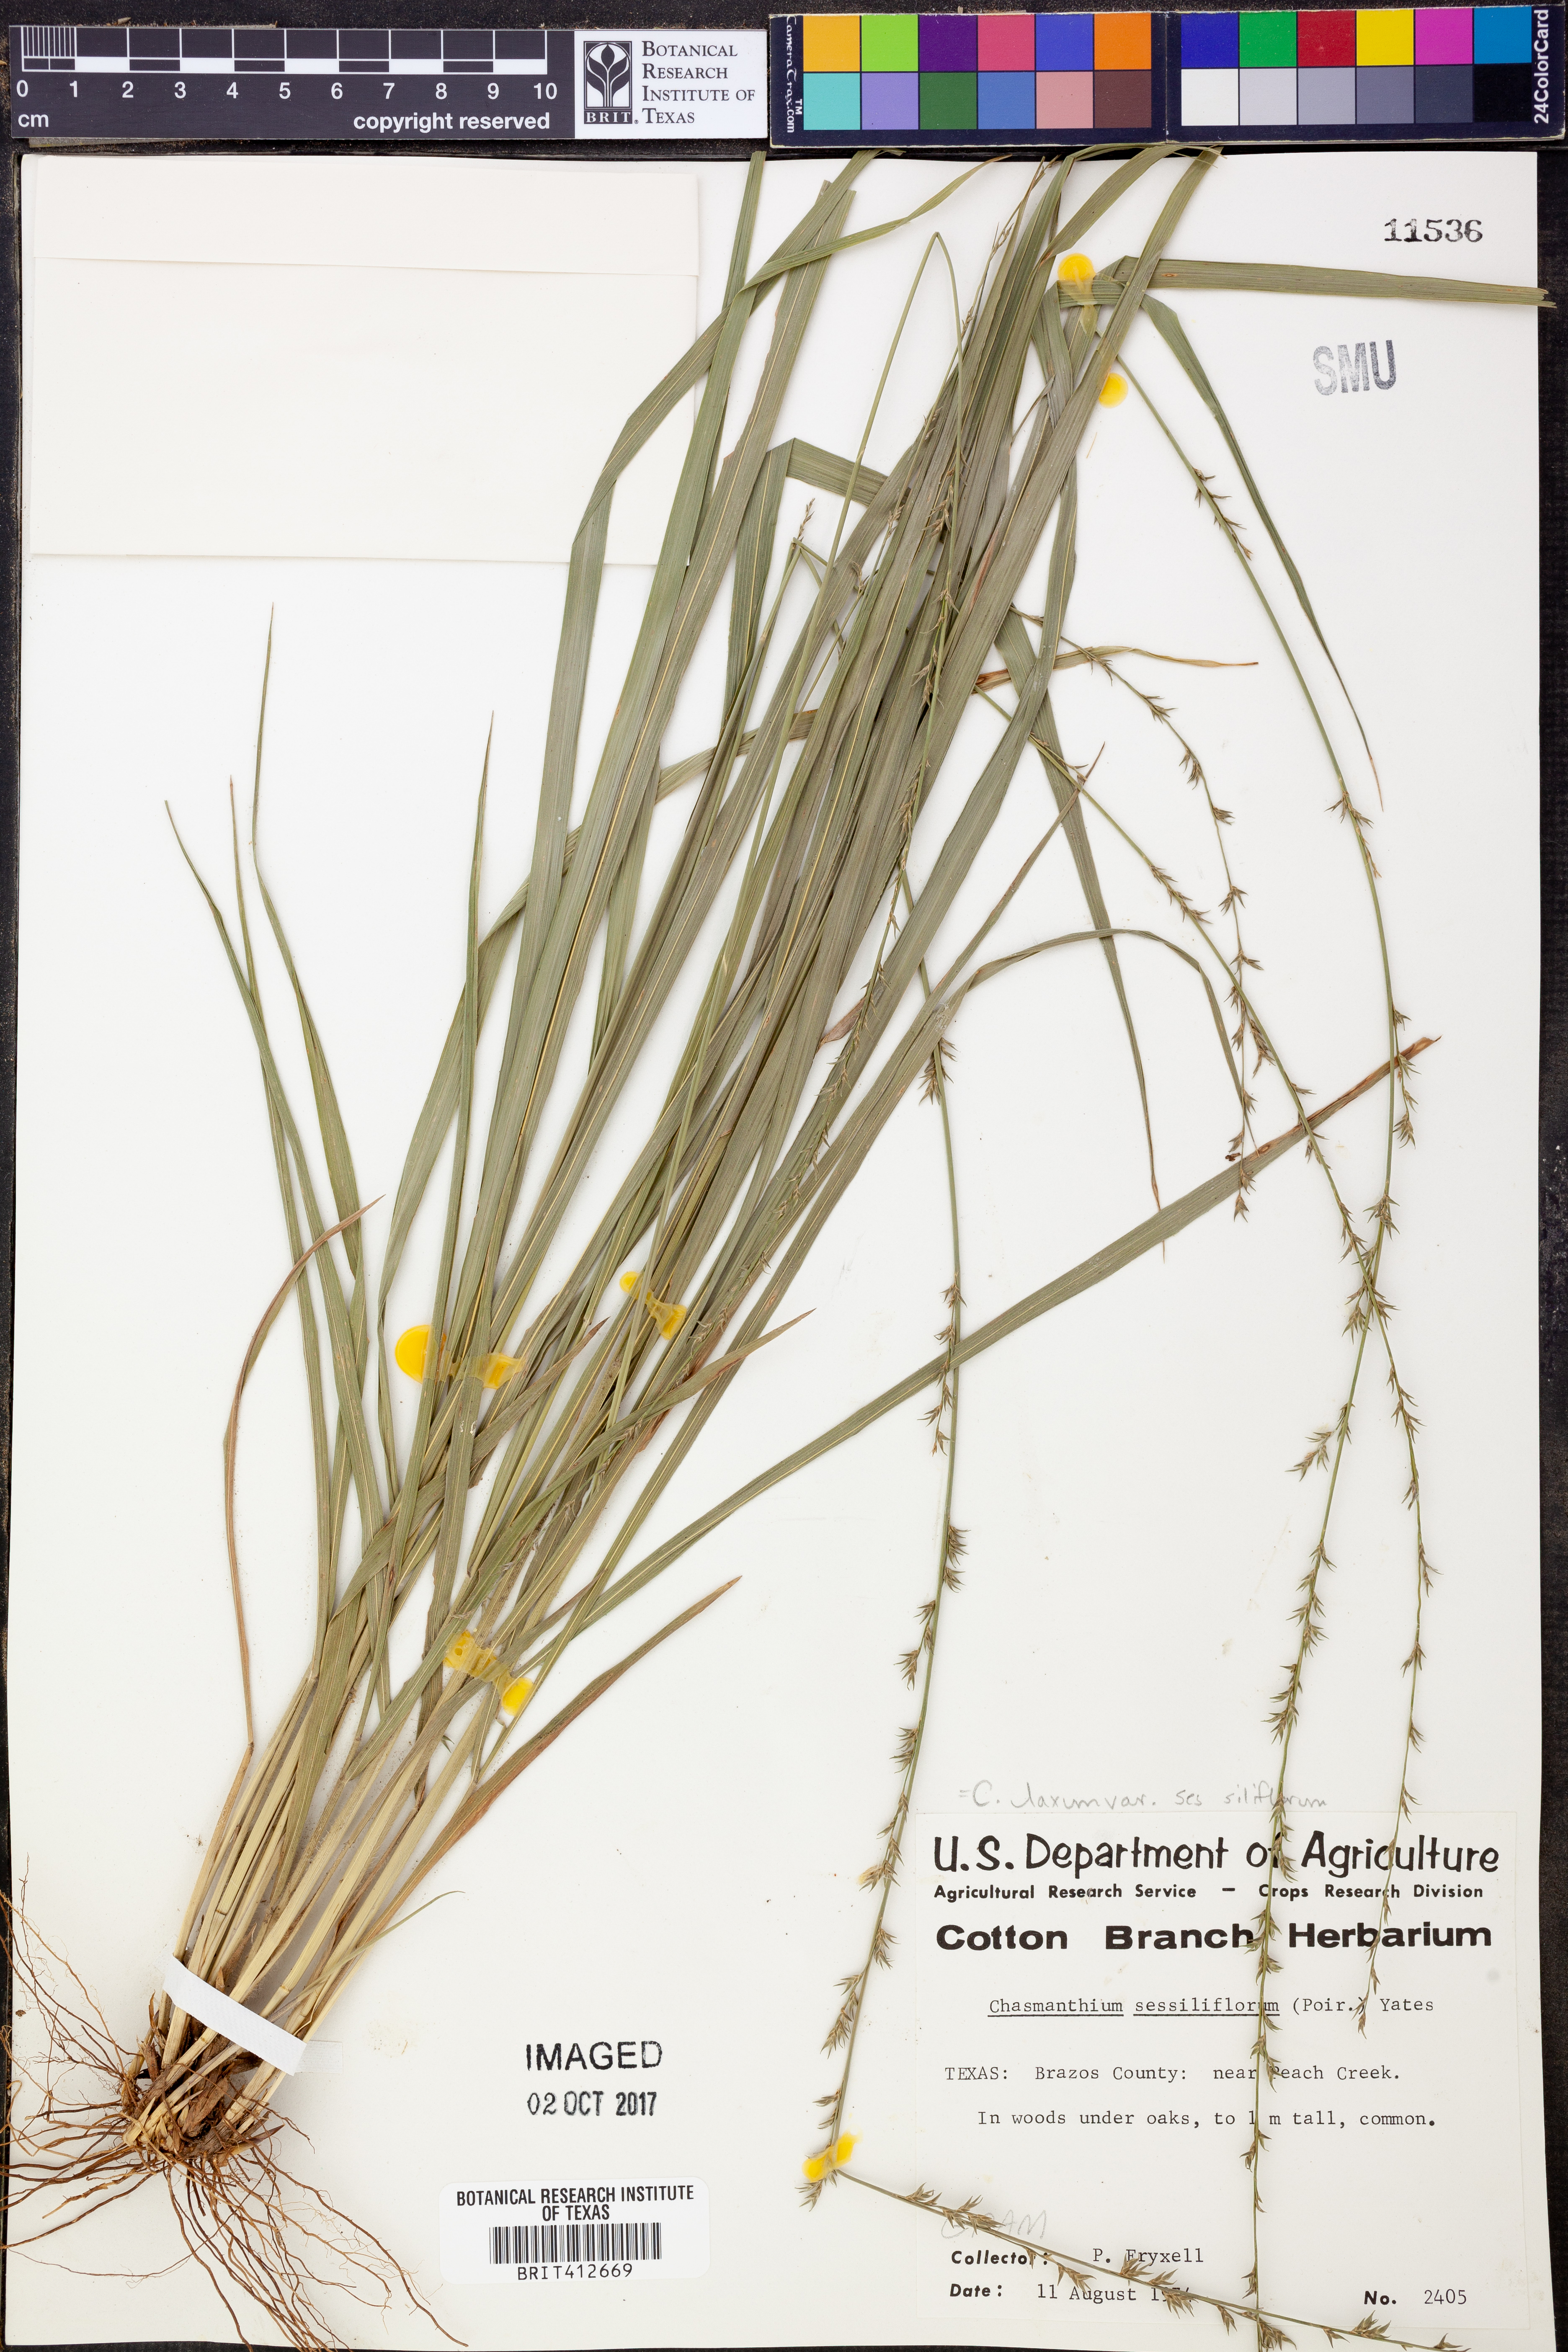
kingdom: Plantae
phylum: Tracheophyta
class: Liliopsida
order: Poales
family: Poaceae
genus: Chasmanthium
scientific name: Chasmanthium laxum
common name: Slender chasmanthium
